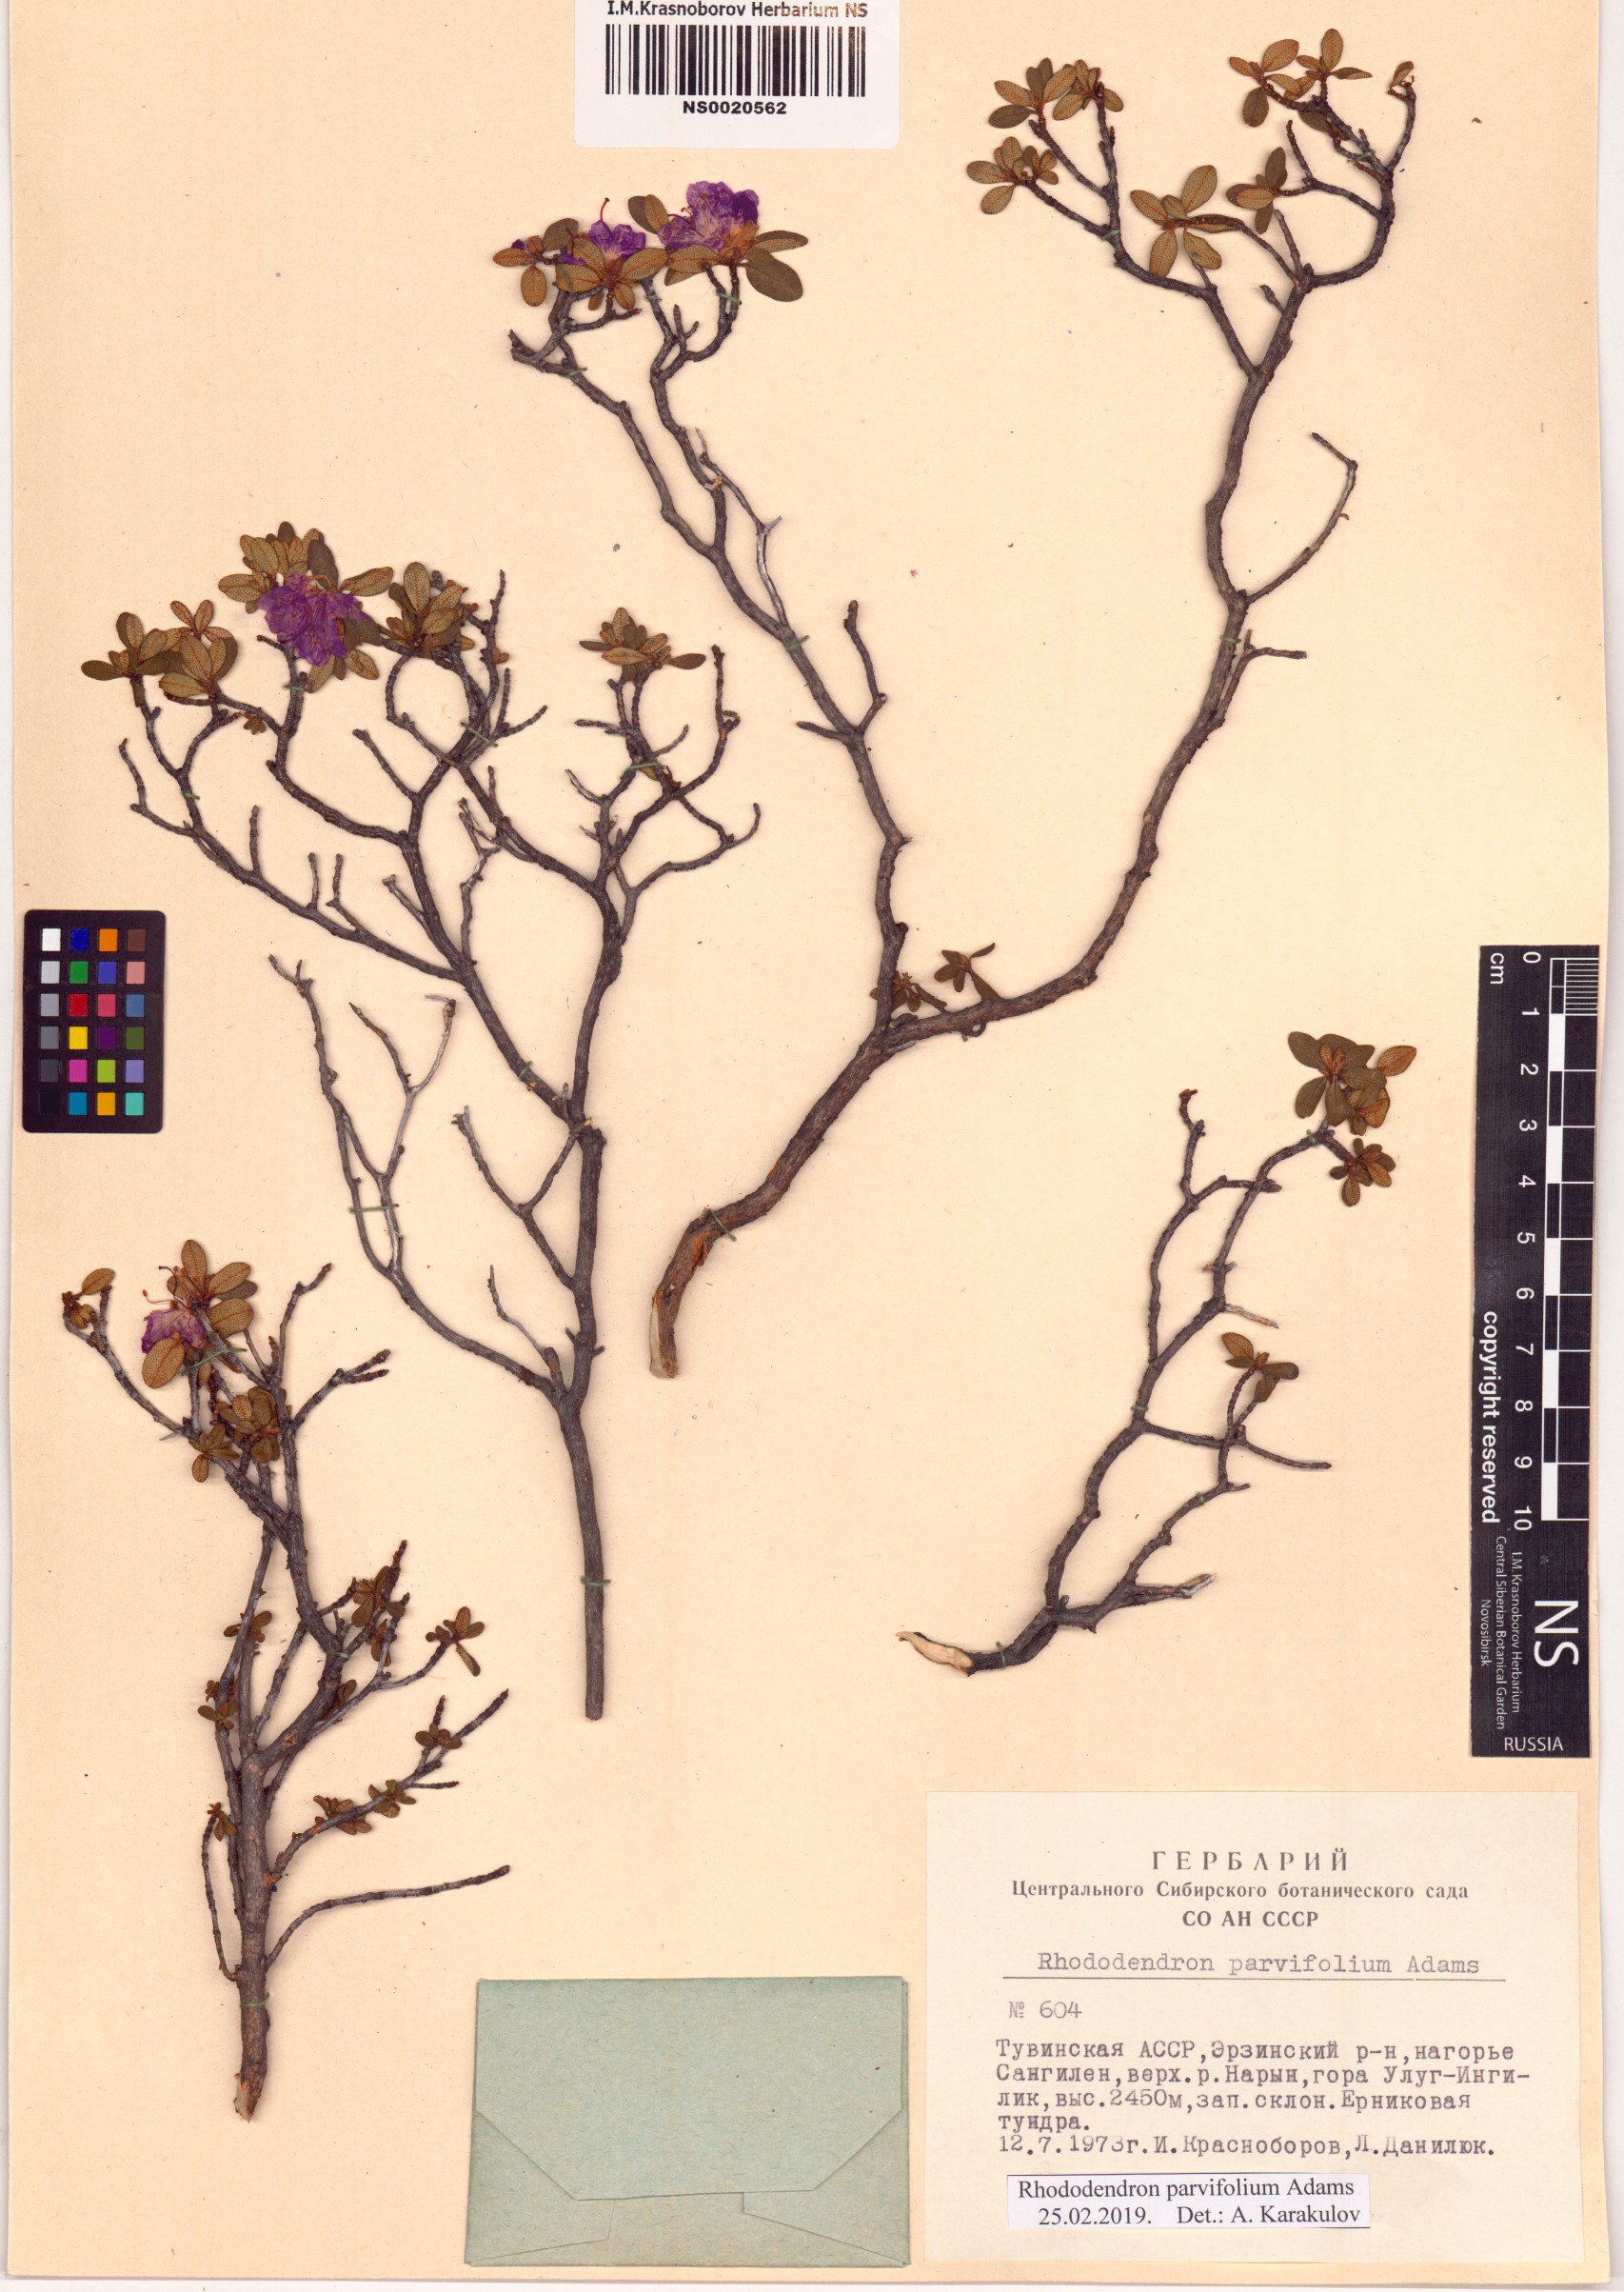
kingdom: Plantae
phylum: Tracheophyta
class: Magnoliopsida
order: Ericales
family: Ericaceae
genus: Rhododendron
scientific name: Rhododendron parvifolium
